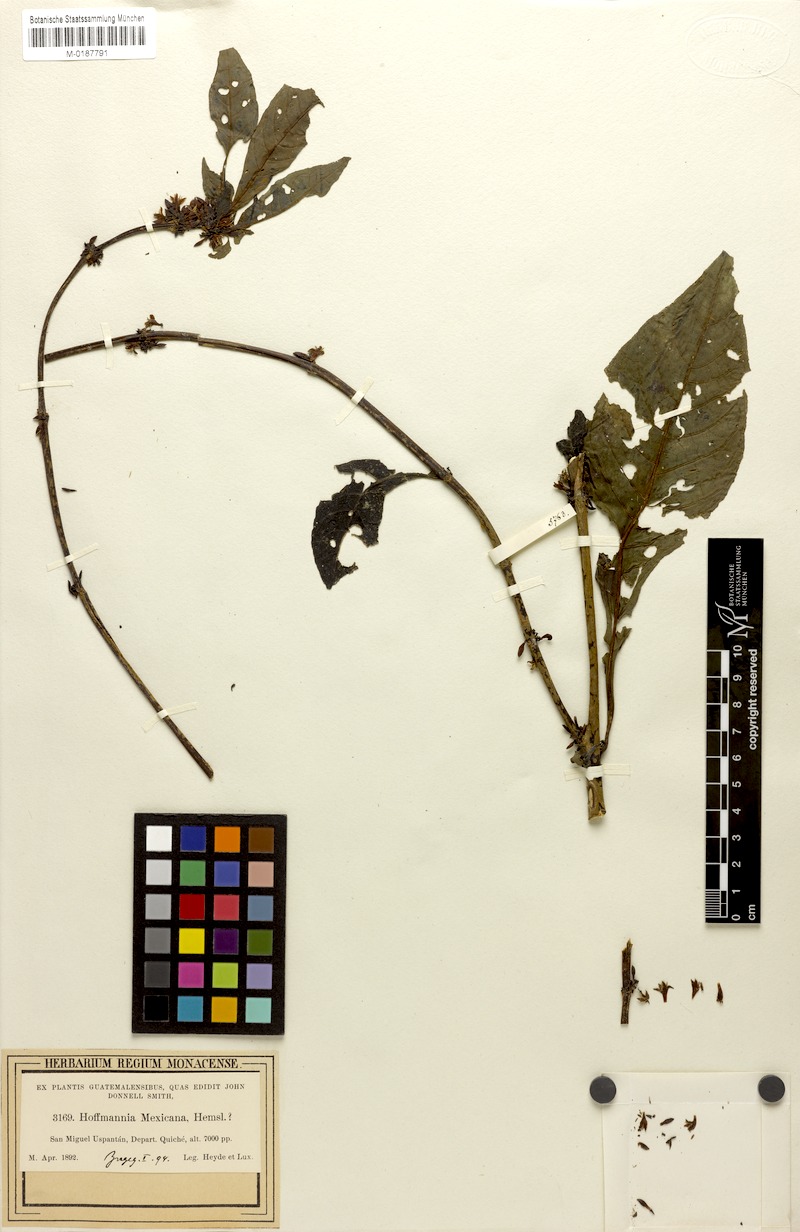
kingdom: Plantae
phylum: Tracheophyta
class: Magnoliopsida
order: Gentianales
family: Rubiaceae
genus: Hoffmannia
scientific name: Hoffmannia psychotriifolia
